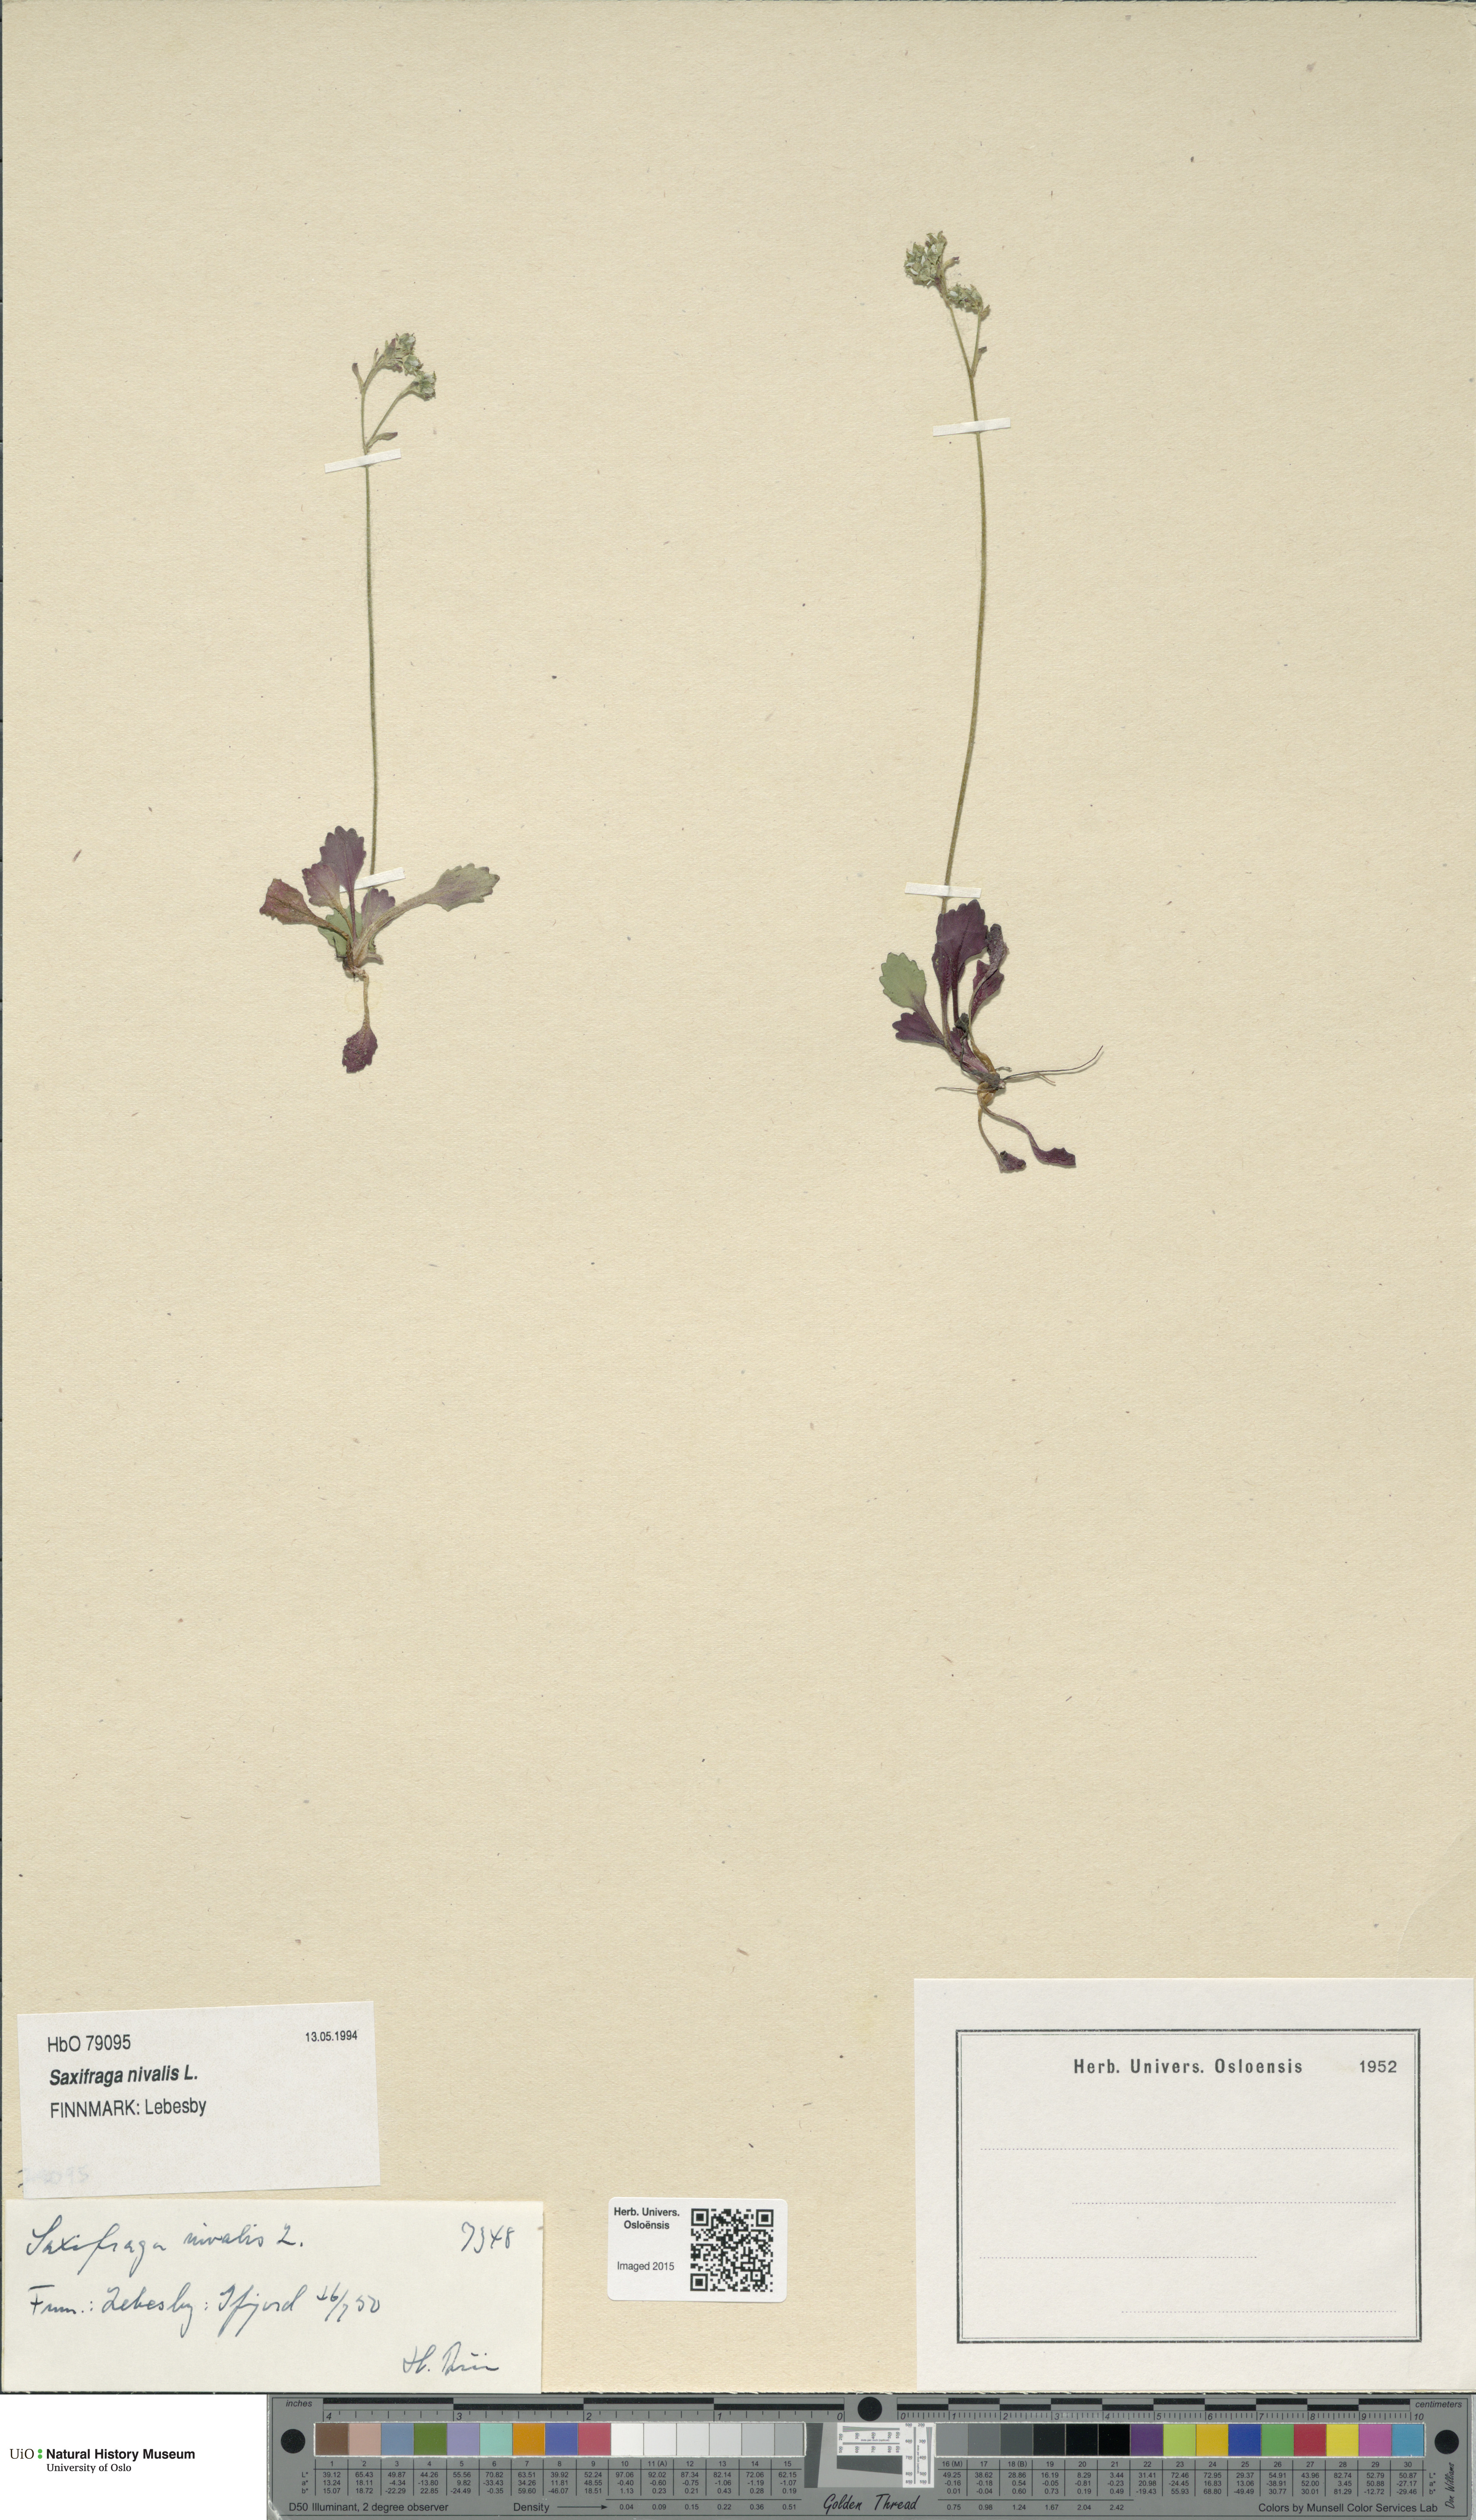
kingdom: Plantae
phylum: Tracheophyta
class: Magnoliopsida
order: Saxifragales
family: Saxifragaceae
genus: Micranthes
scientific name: Micranthes nivalis
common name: Alpine saxifrage
